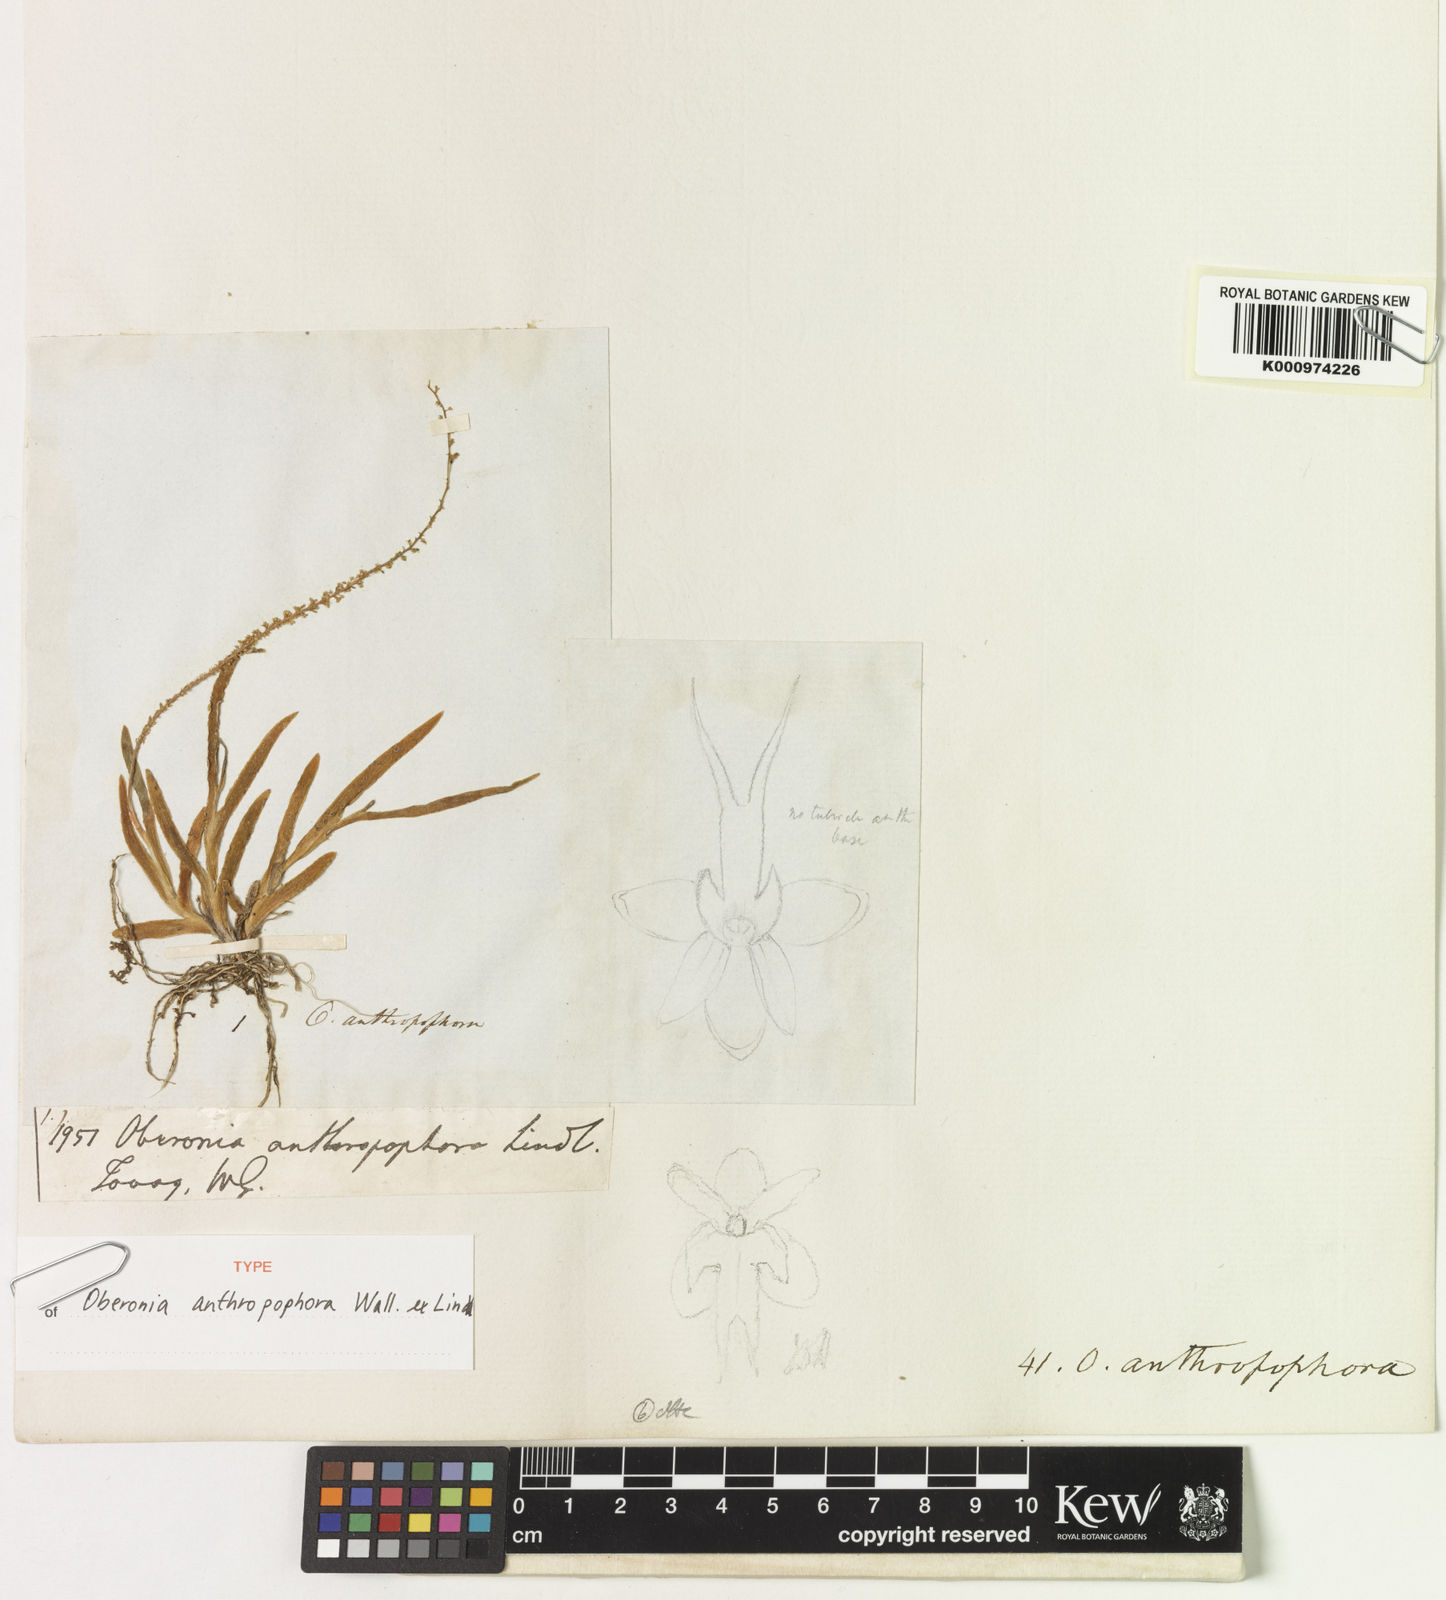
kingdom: Plantae
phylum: Tracheophyta
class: Liliopsida
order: Asparagales
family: Orchidaceae
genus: Oberonia
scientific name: Oberonia anthropophora
